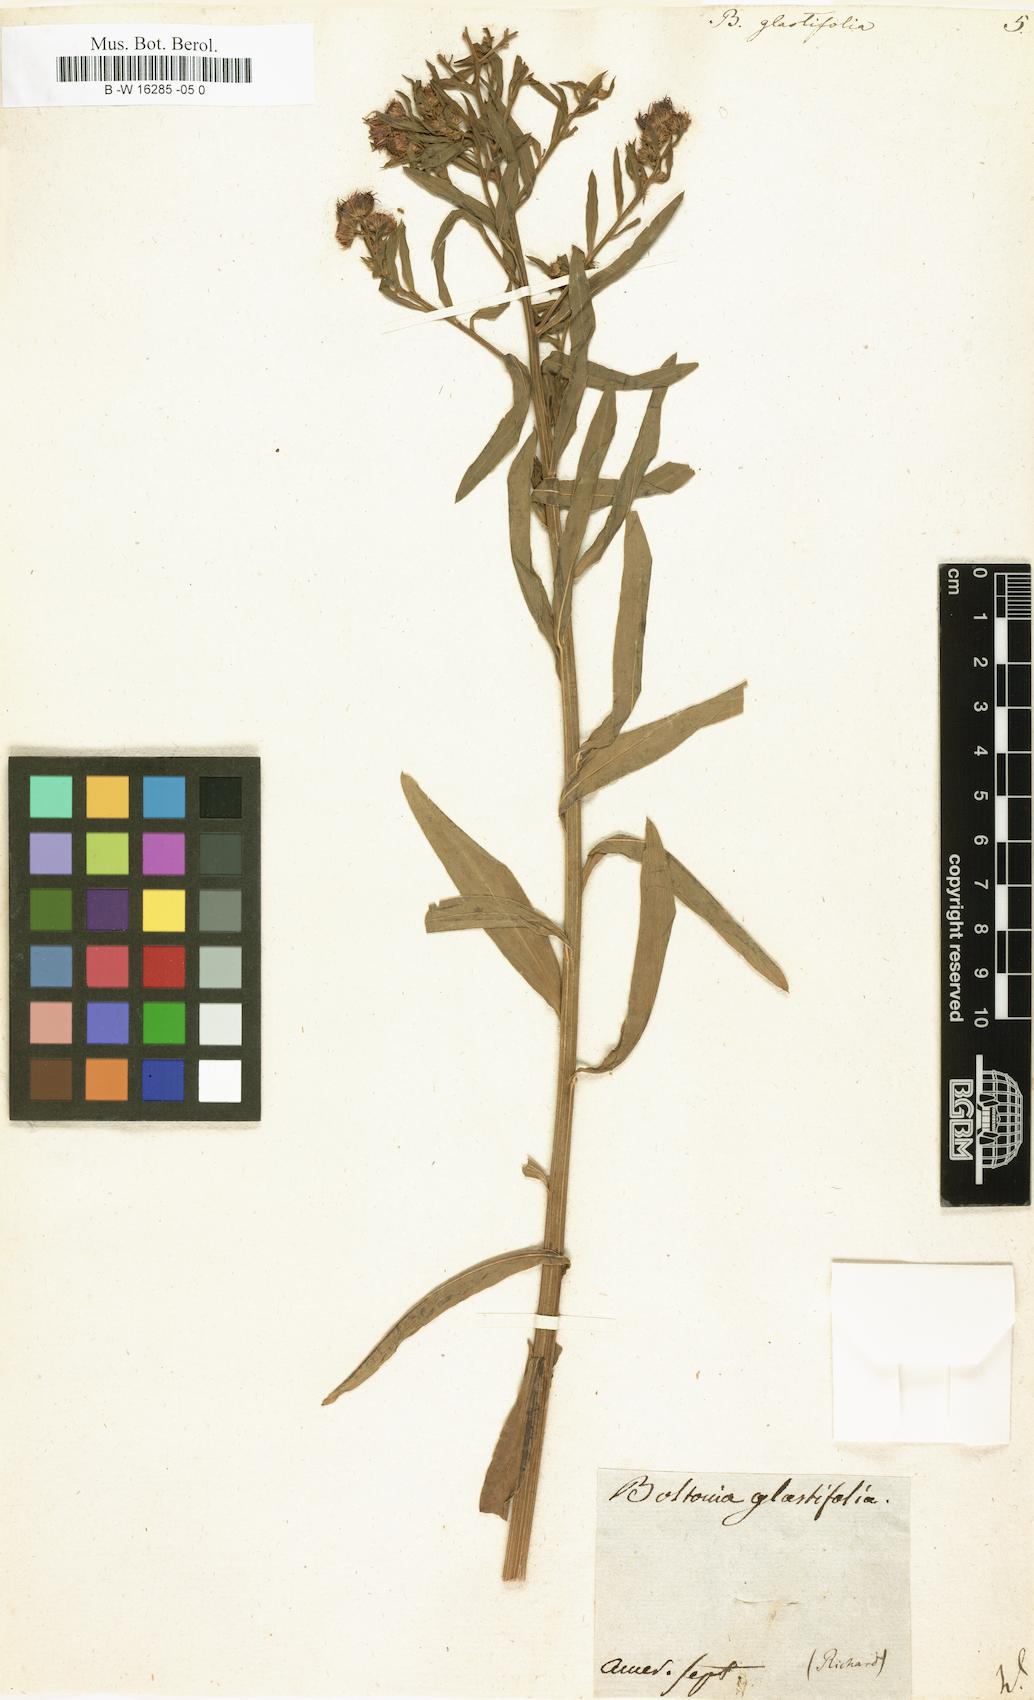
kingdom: Plantae
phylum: Tracheophyta
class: Magnoliopsida
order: Asterales
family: Asteraceae
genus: Boltonia
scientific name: Boltonia glastifolia
